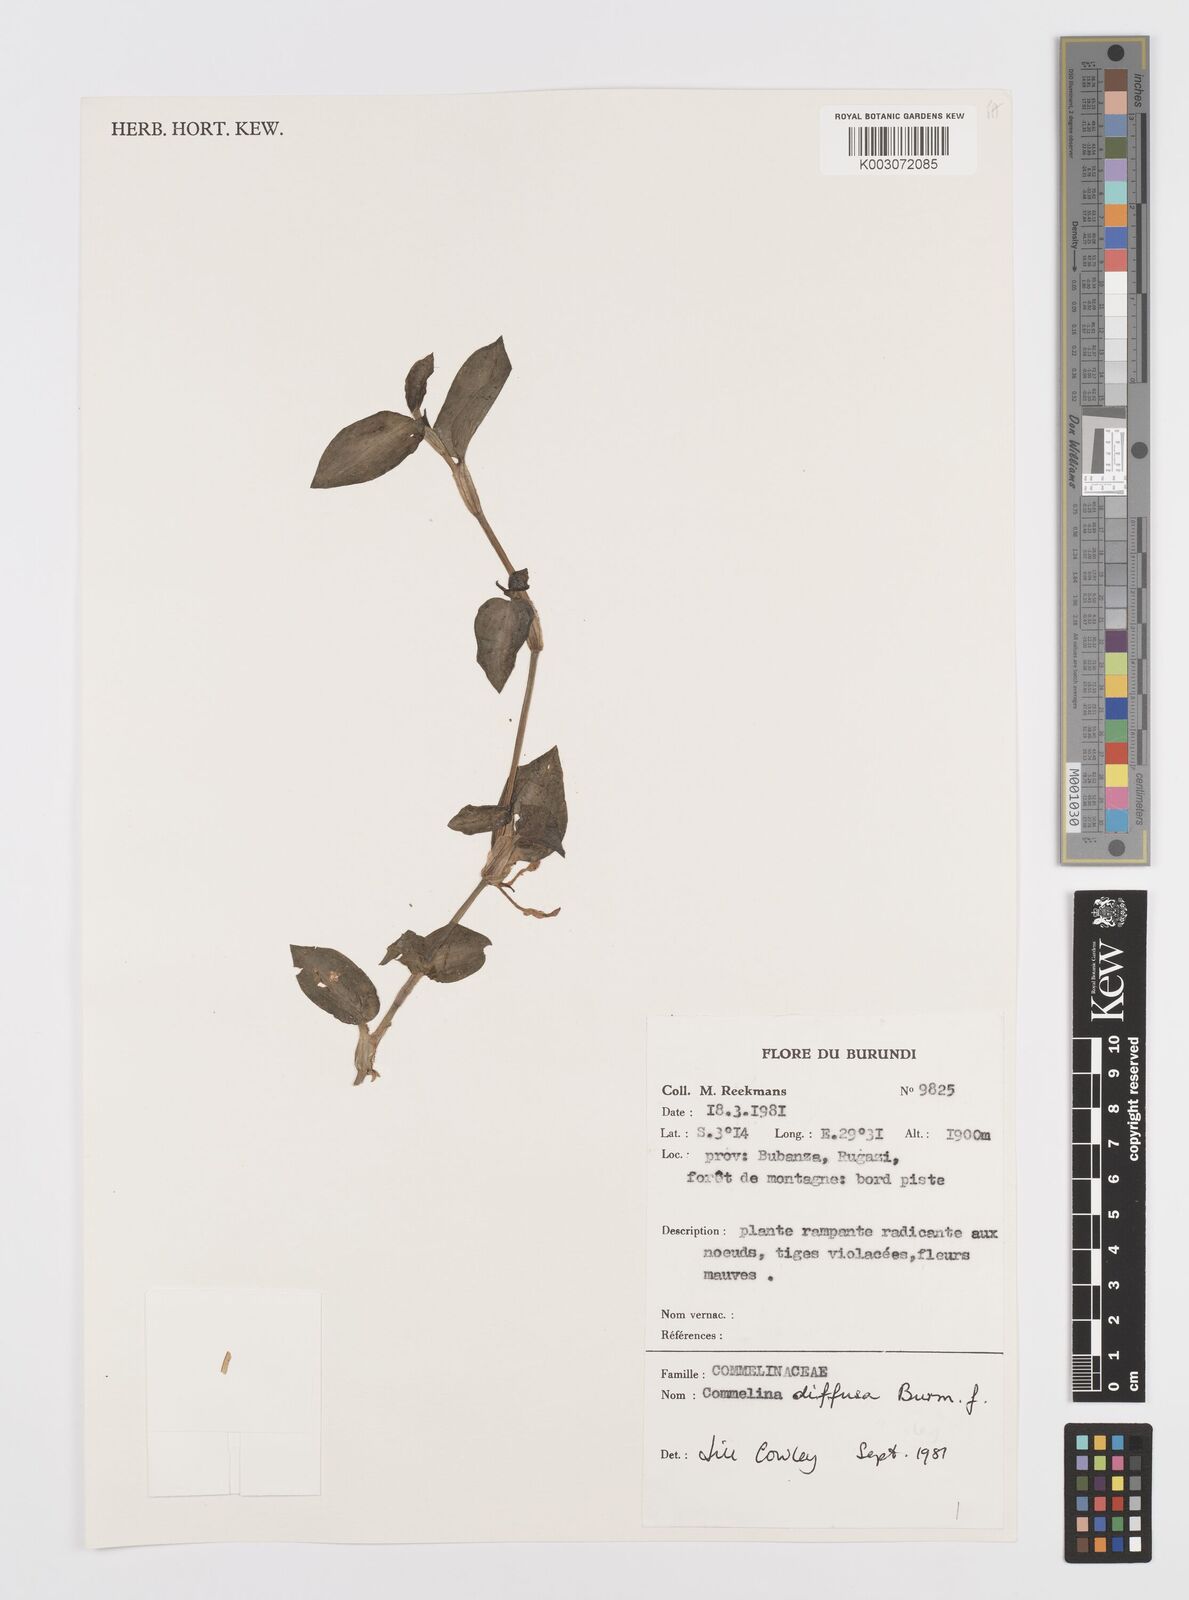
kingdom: Plantae
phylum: Tracheophyta
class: Liliopsida
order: Commelinales
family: Commelinaceae
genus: Commelina
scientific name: Commelina diffusa
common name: Climbing dayflower
